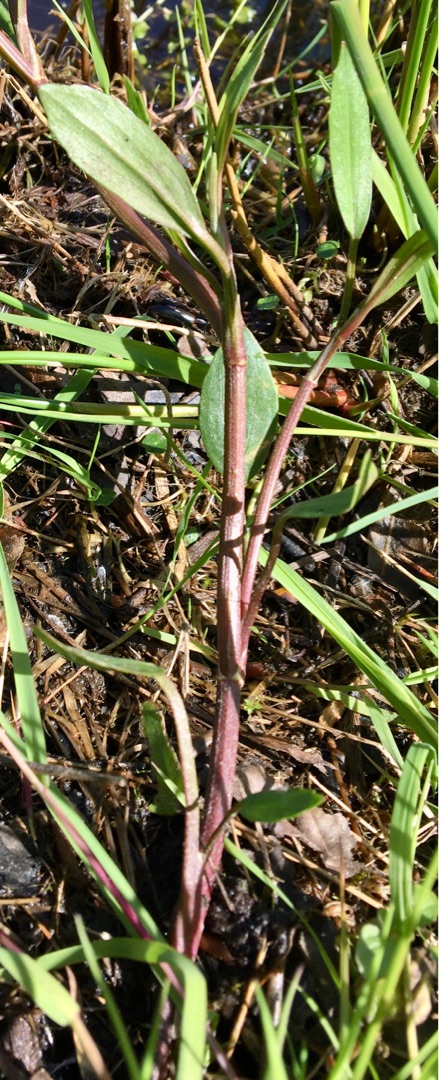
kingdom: Plantae
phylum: Tracheophyta
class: Magnoliopsida
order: Ranunculales
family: Ranunculaceae
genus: Ranunculus
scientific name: Ranunculus flammula
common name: Kær-ranunkel
